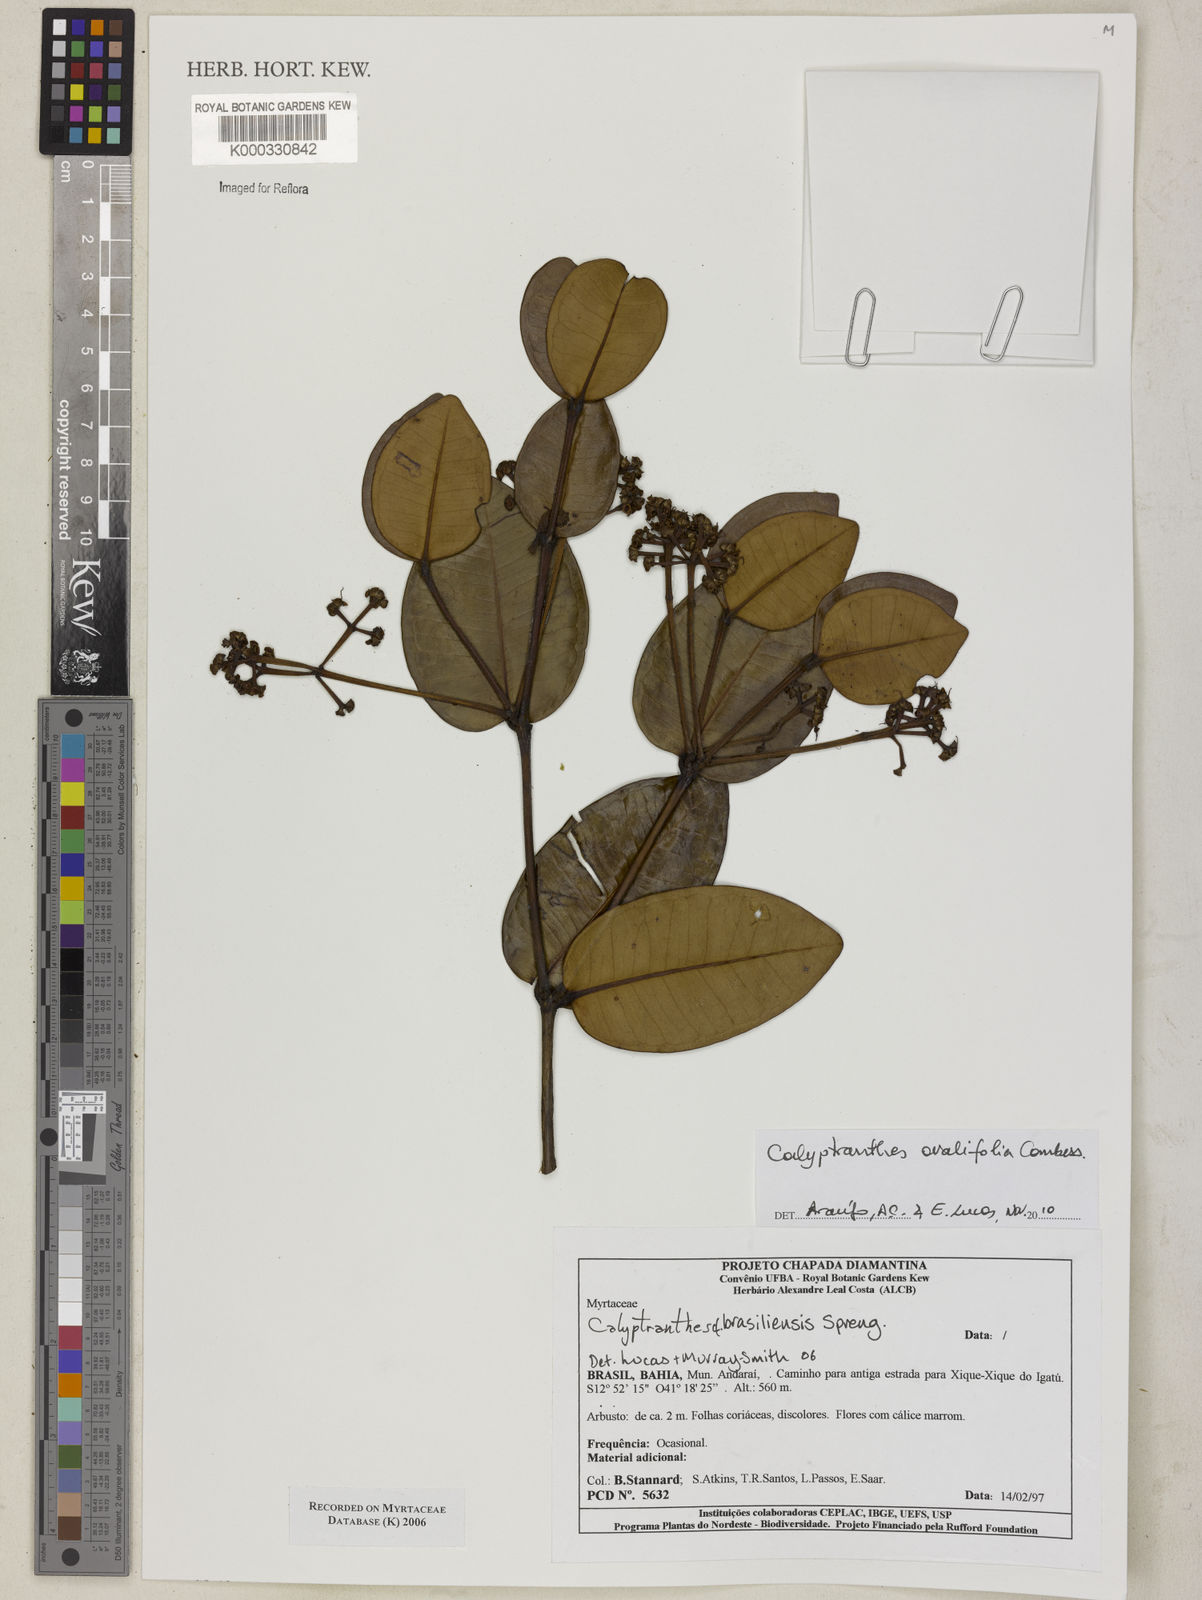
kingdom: Plantae
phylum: Tracheophyta
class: Magnoliopsida
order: Myrtales
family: Myrtaceae
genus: Myrcia
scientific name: Myrcia neobrasiliensis
